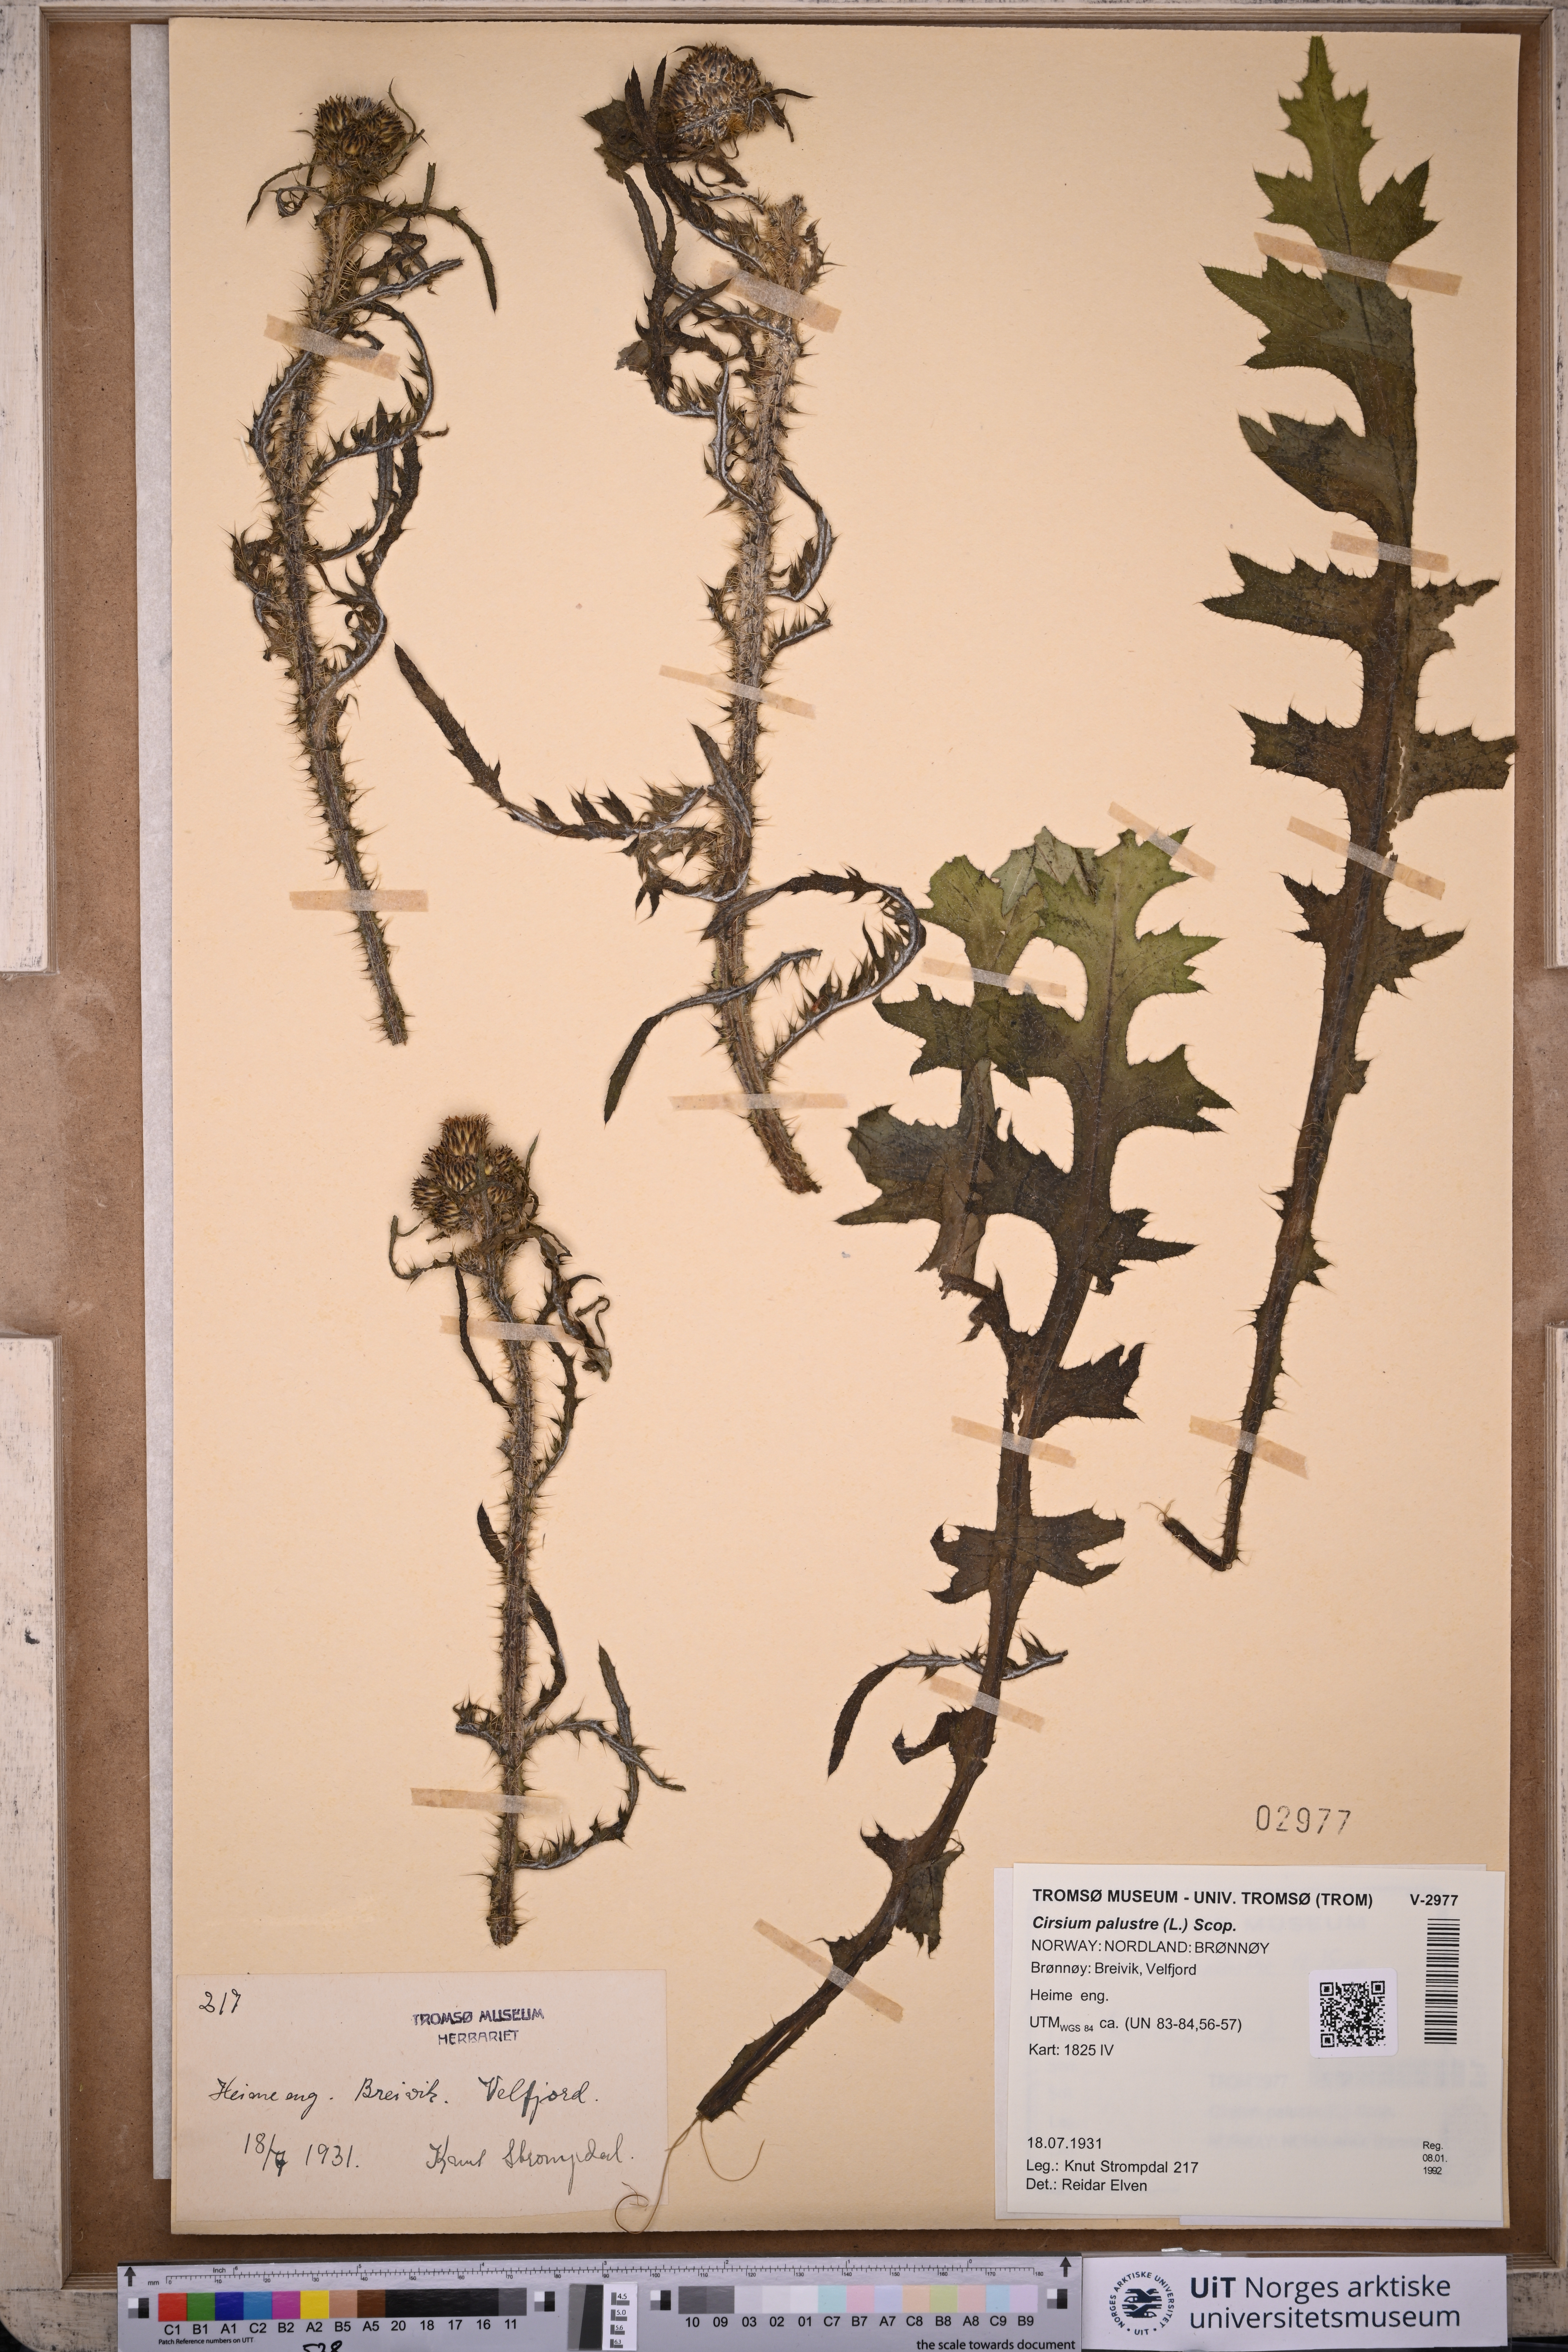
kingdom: Plantae
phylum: Tracheophyta
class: Magnoliopsida
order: Asterales
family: Asteraceae
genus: Cirsium
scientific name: Cirsium palustre
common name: Marsh thistle
